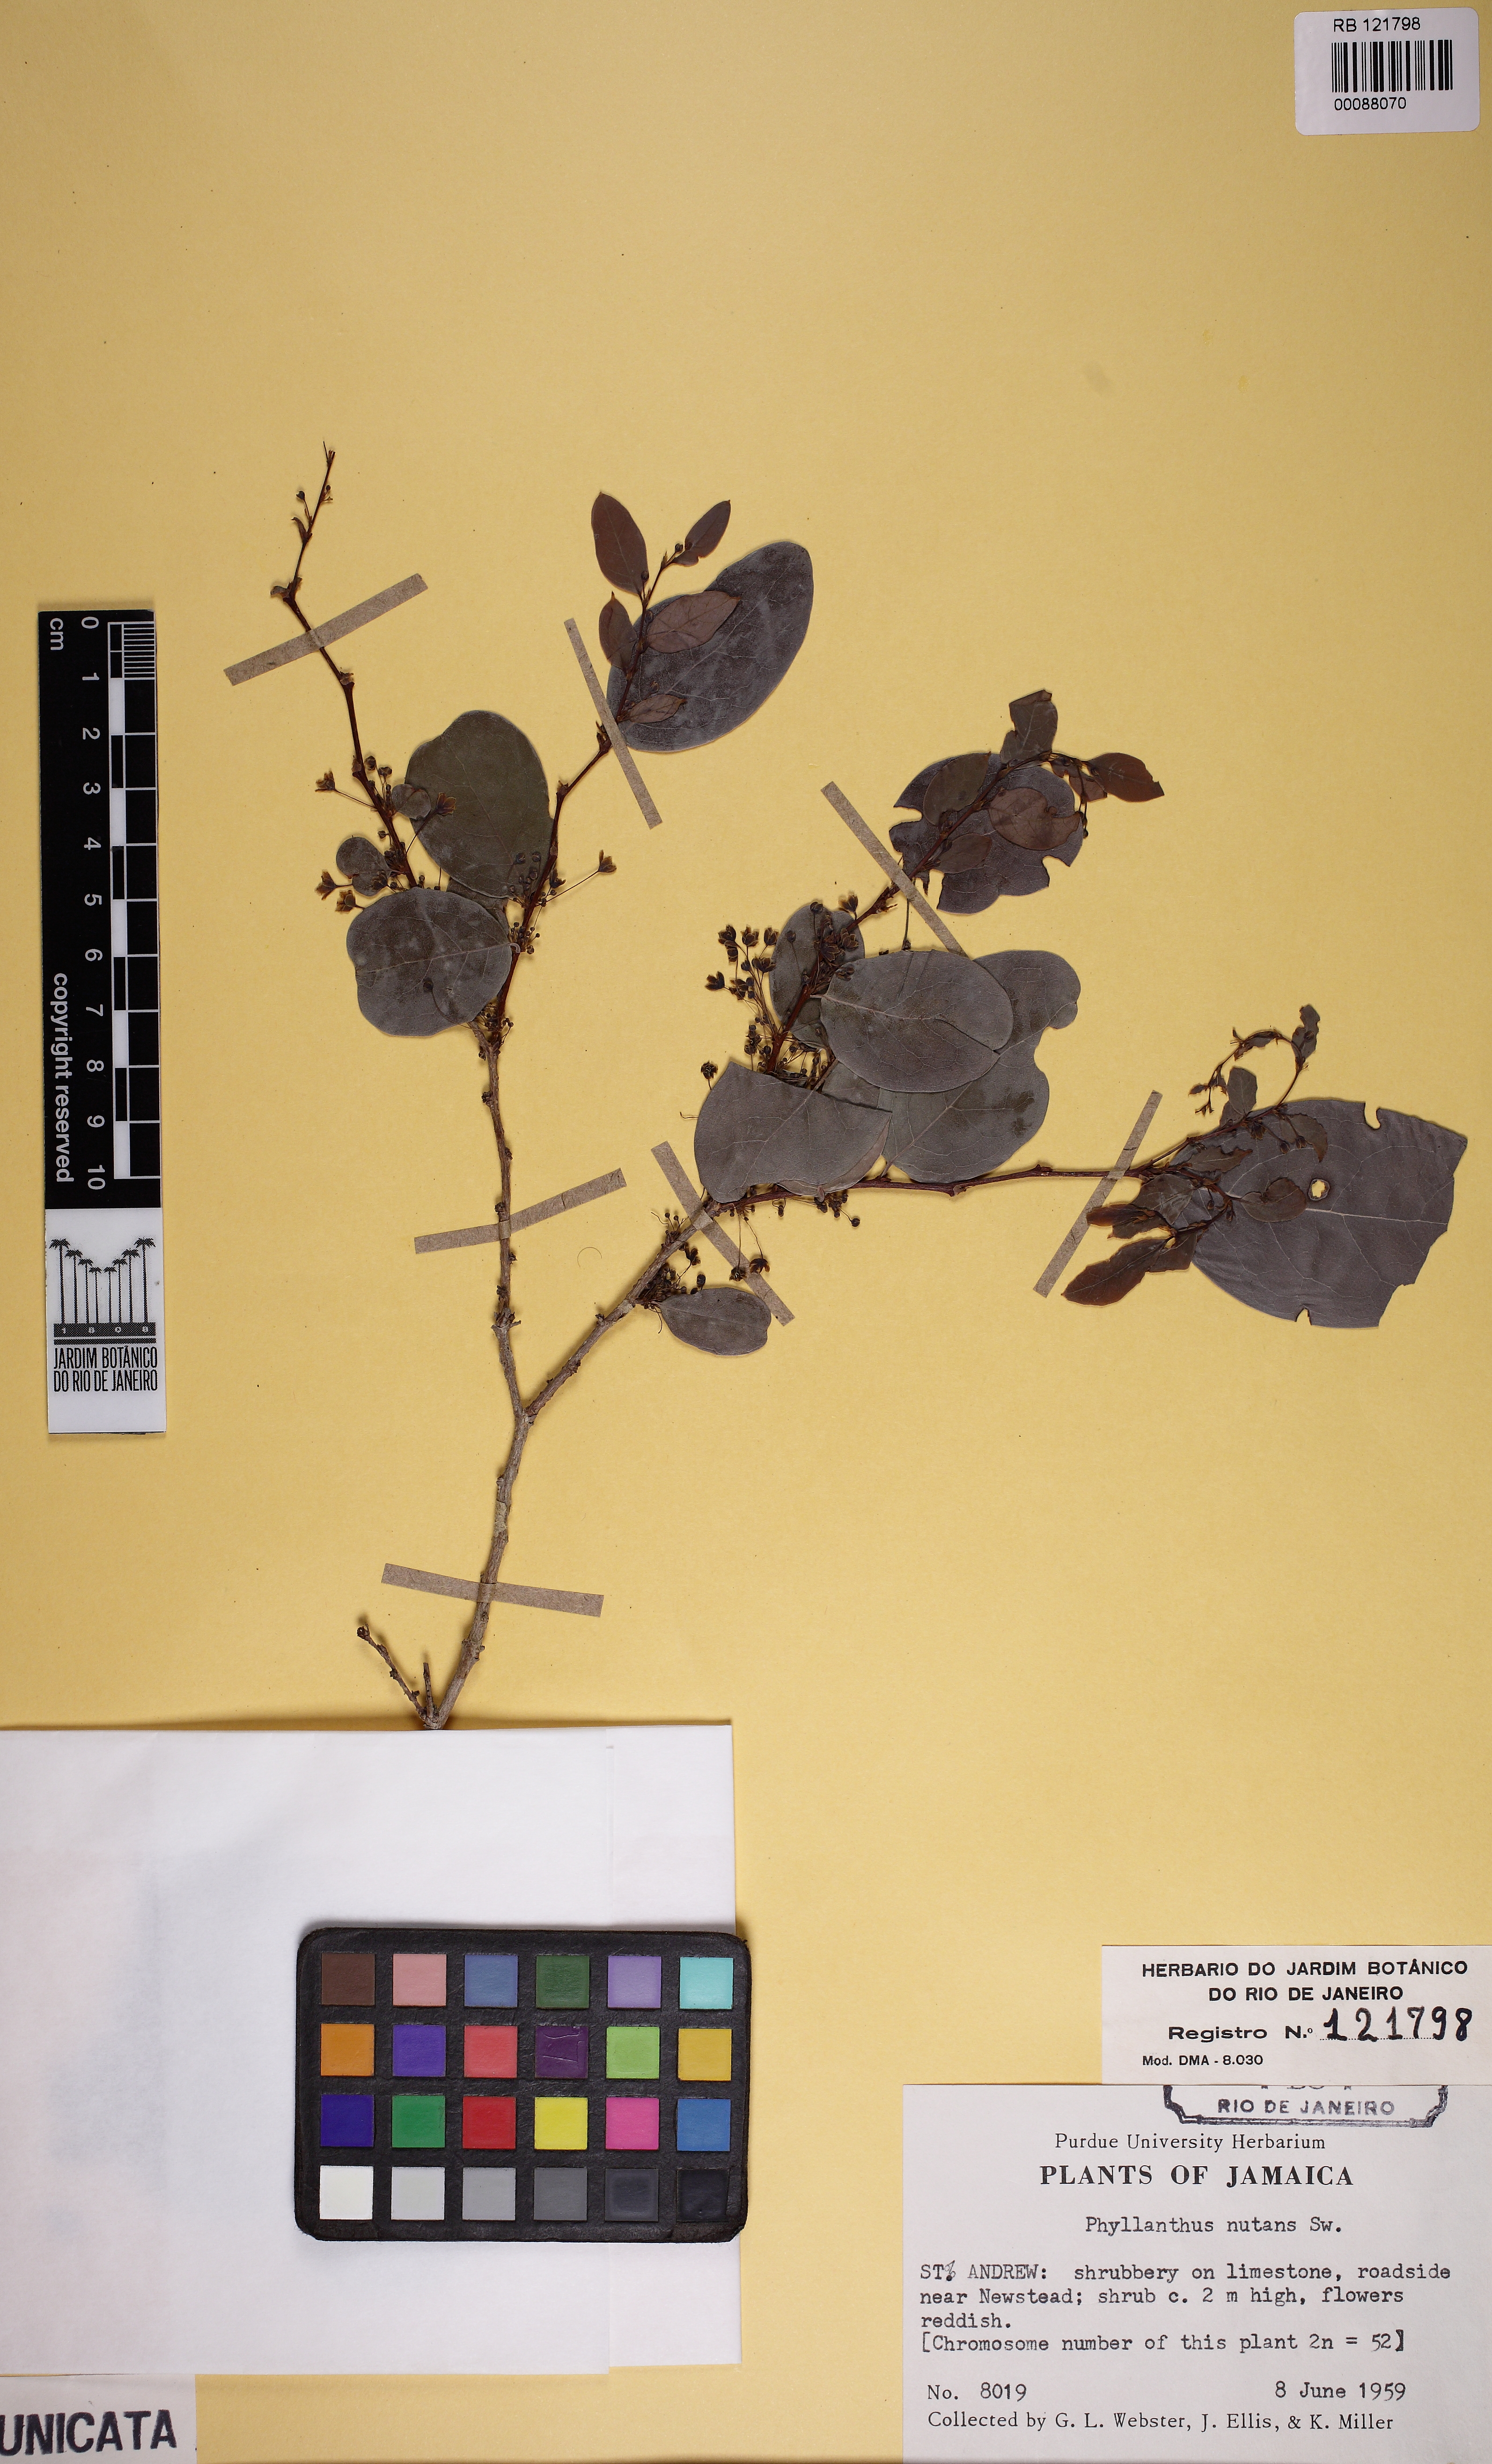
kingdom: Plantae
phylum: Tracheophyta
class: Magnoliopsida
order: Malpighiales
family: Phyllanthaceae
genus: Phyllanthus
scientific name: Phyllanthus nutans
